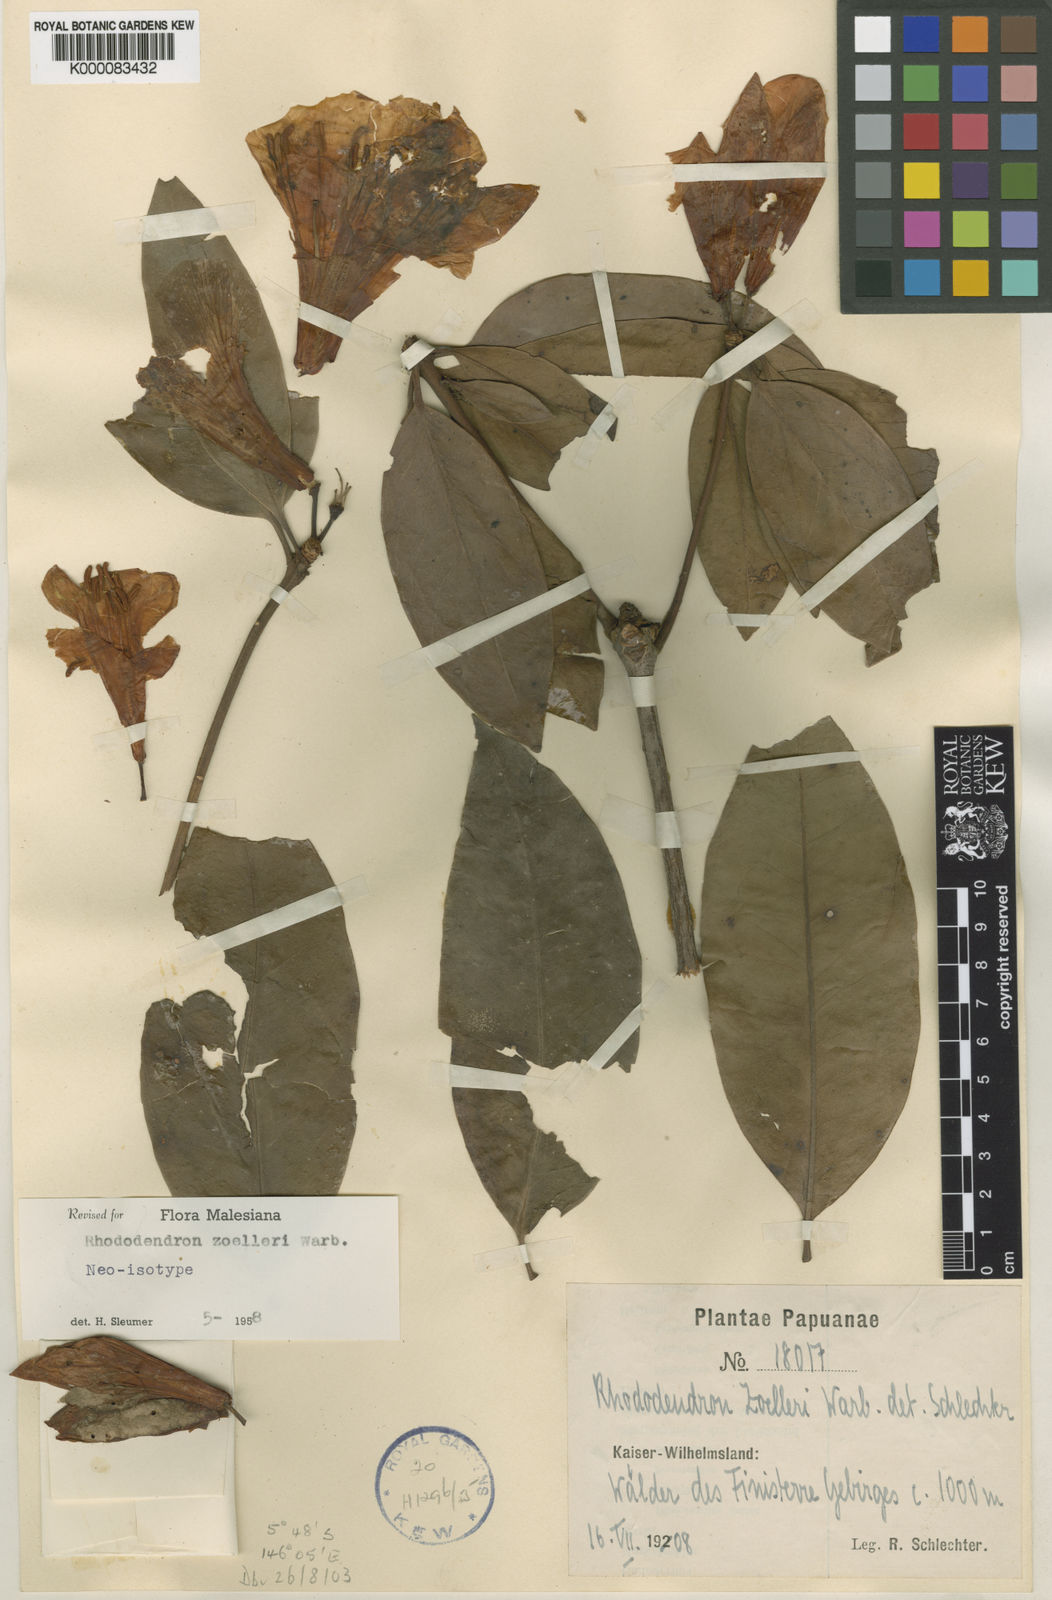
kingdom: Plantae
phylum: Tracheophyta
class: Magnoliopsida
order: Ericales
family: Ericaceae
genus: Rhododendron
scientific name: Rhododendron zoelleri
